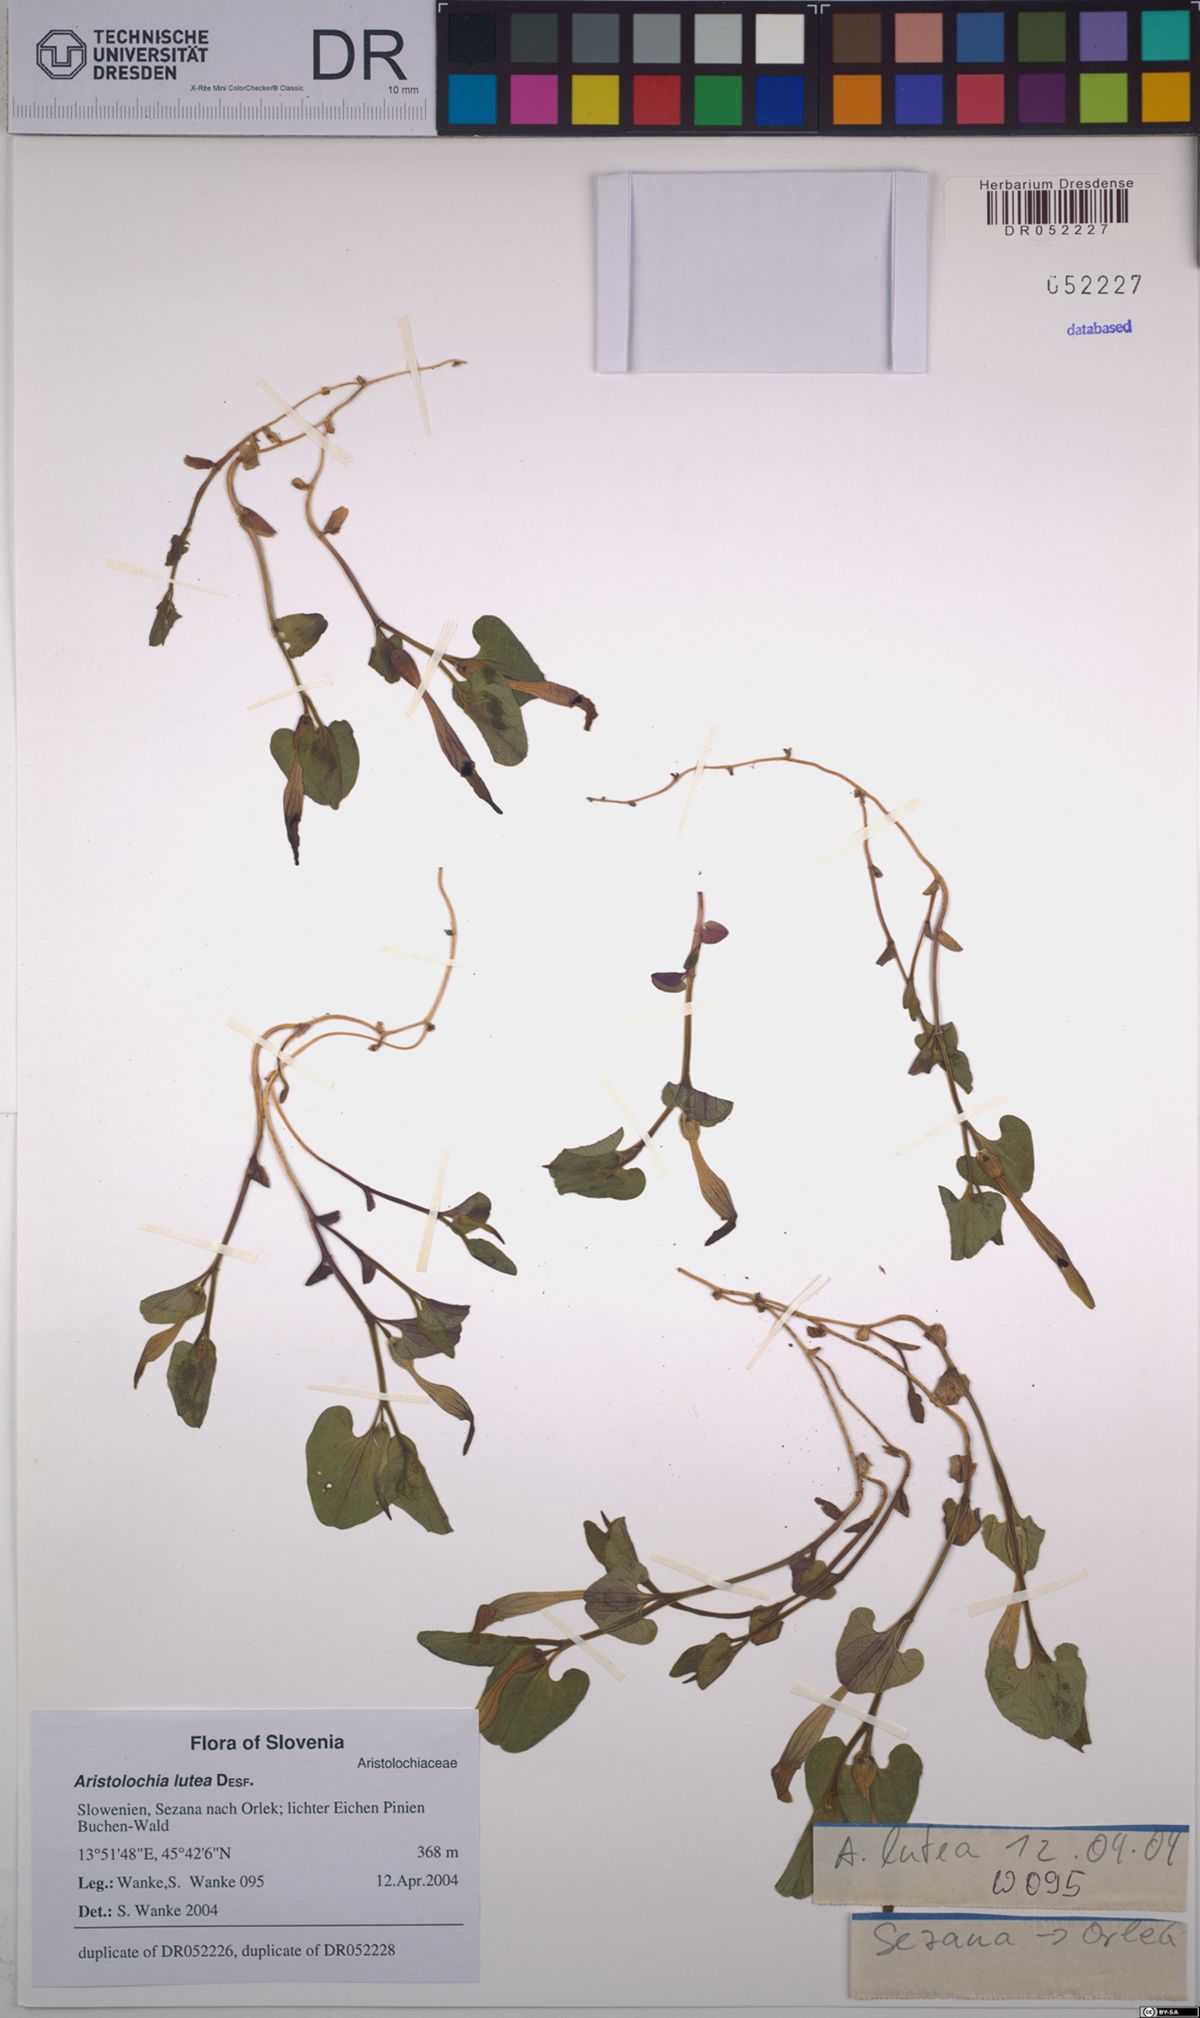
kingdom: Plantae
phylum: Tracheophyta
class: Magnoliopsida
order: Piperales
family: Aristolochiaceae
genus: Aristolochia
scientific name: Aristolochia lutea
